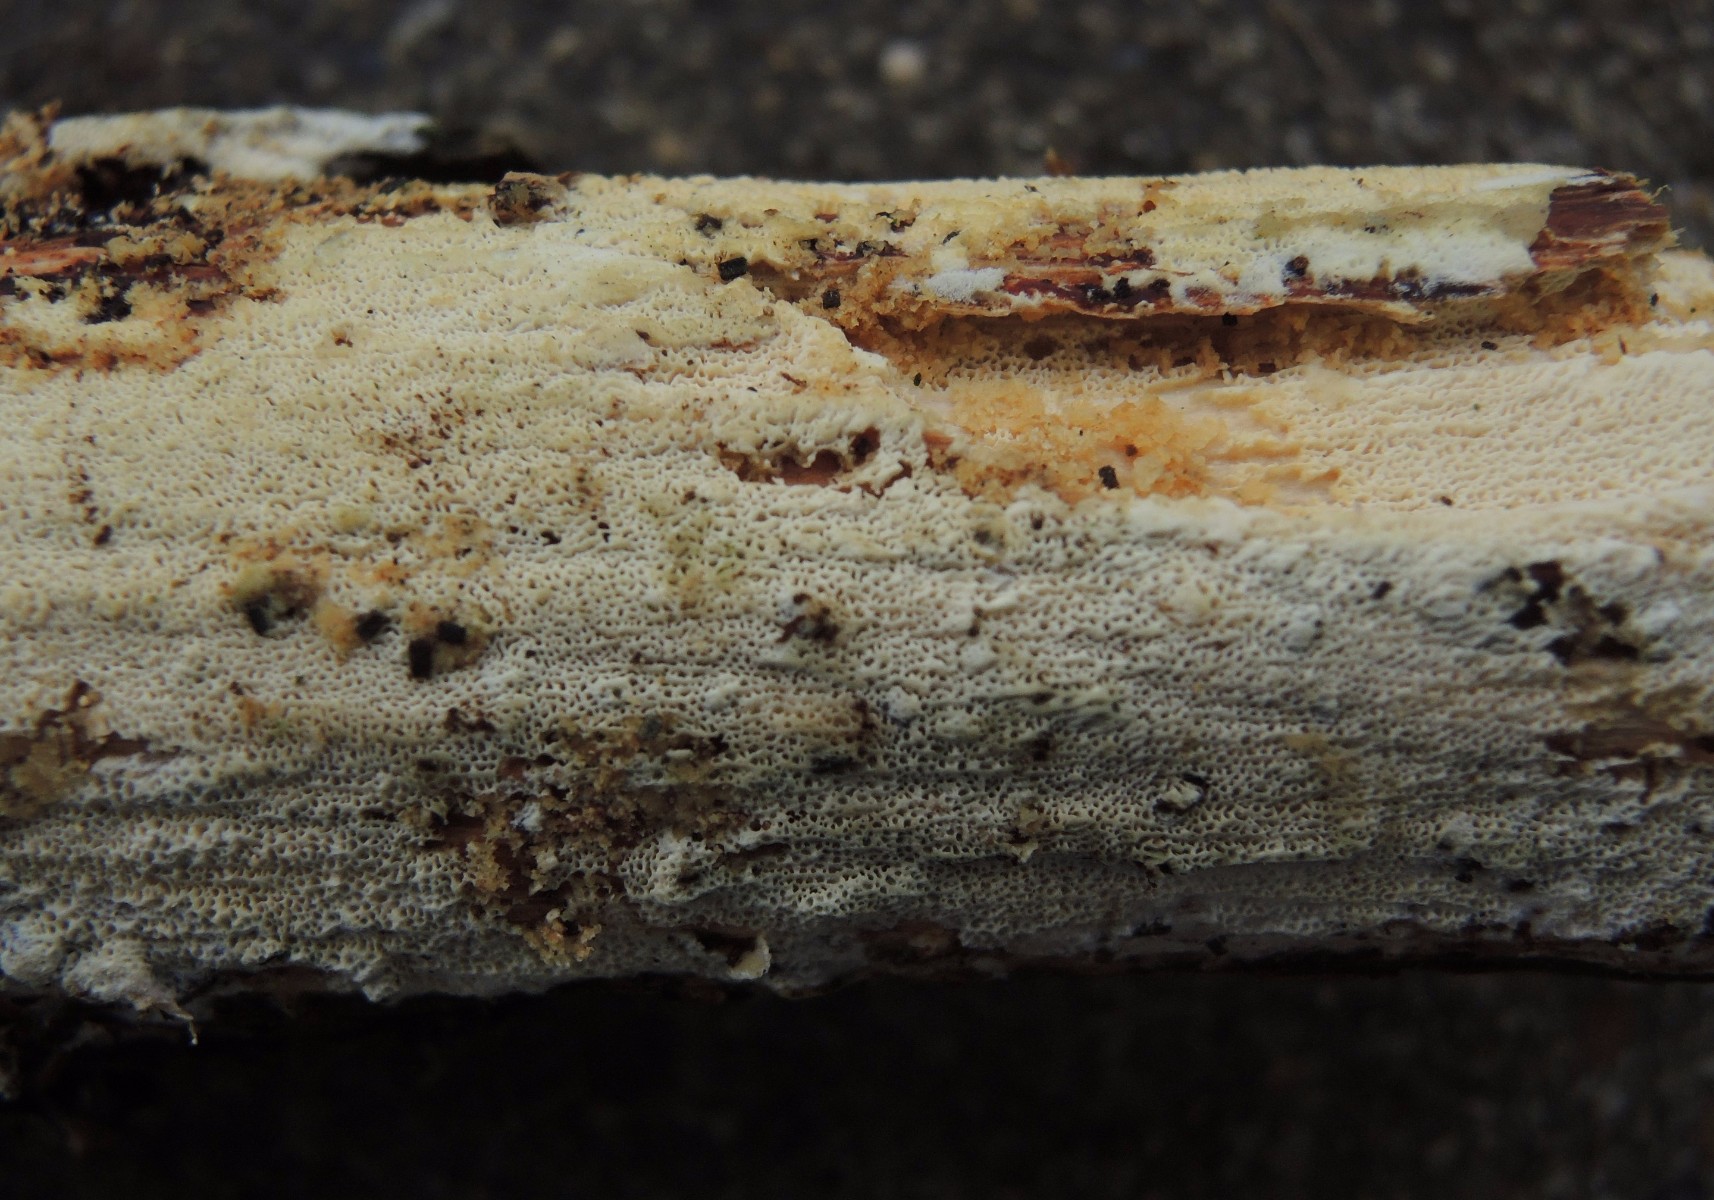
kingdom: Fungi
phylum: Basidiomycota
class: Agaricomycetes
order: Hymenochaetales
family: Schizoporaceae
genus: Xylodon
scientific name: Xylodon subtropicus
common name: labyrint-tandsvamp
